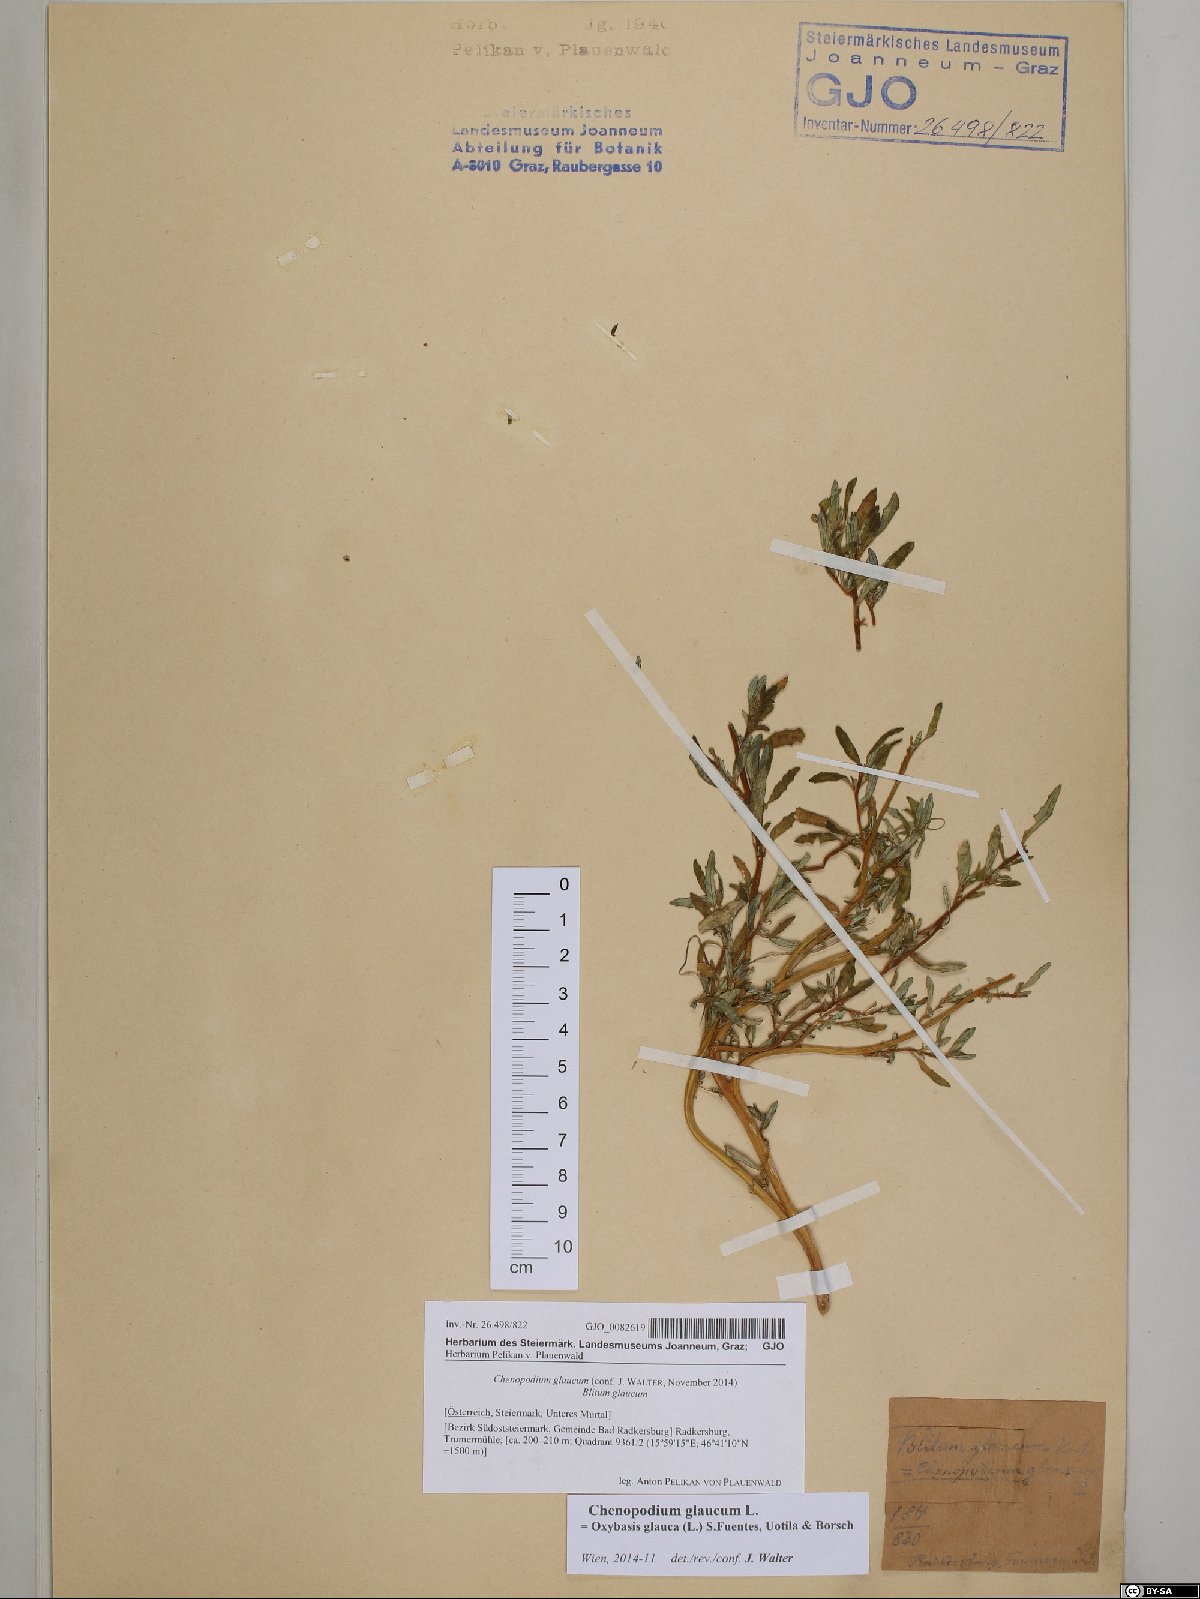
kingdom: Plantae
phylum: Tracheophyta
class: Magnoliopsida
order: Caryophyllales
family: Amaranthaceae
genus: Oxybasis
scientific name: Oxybasis glauca
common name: Glaucous goosefoot
